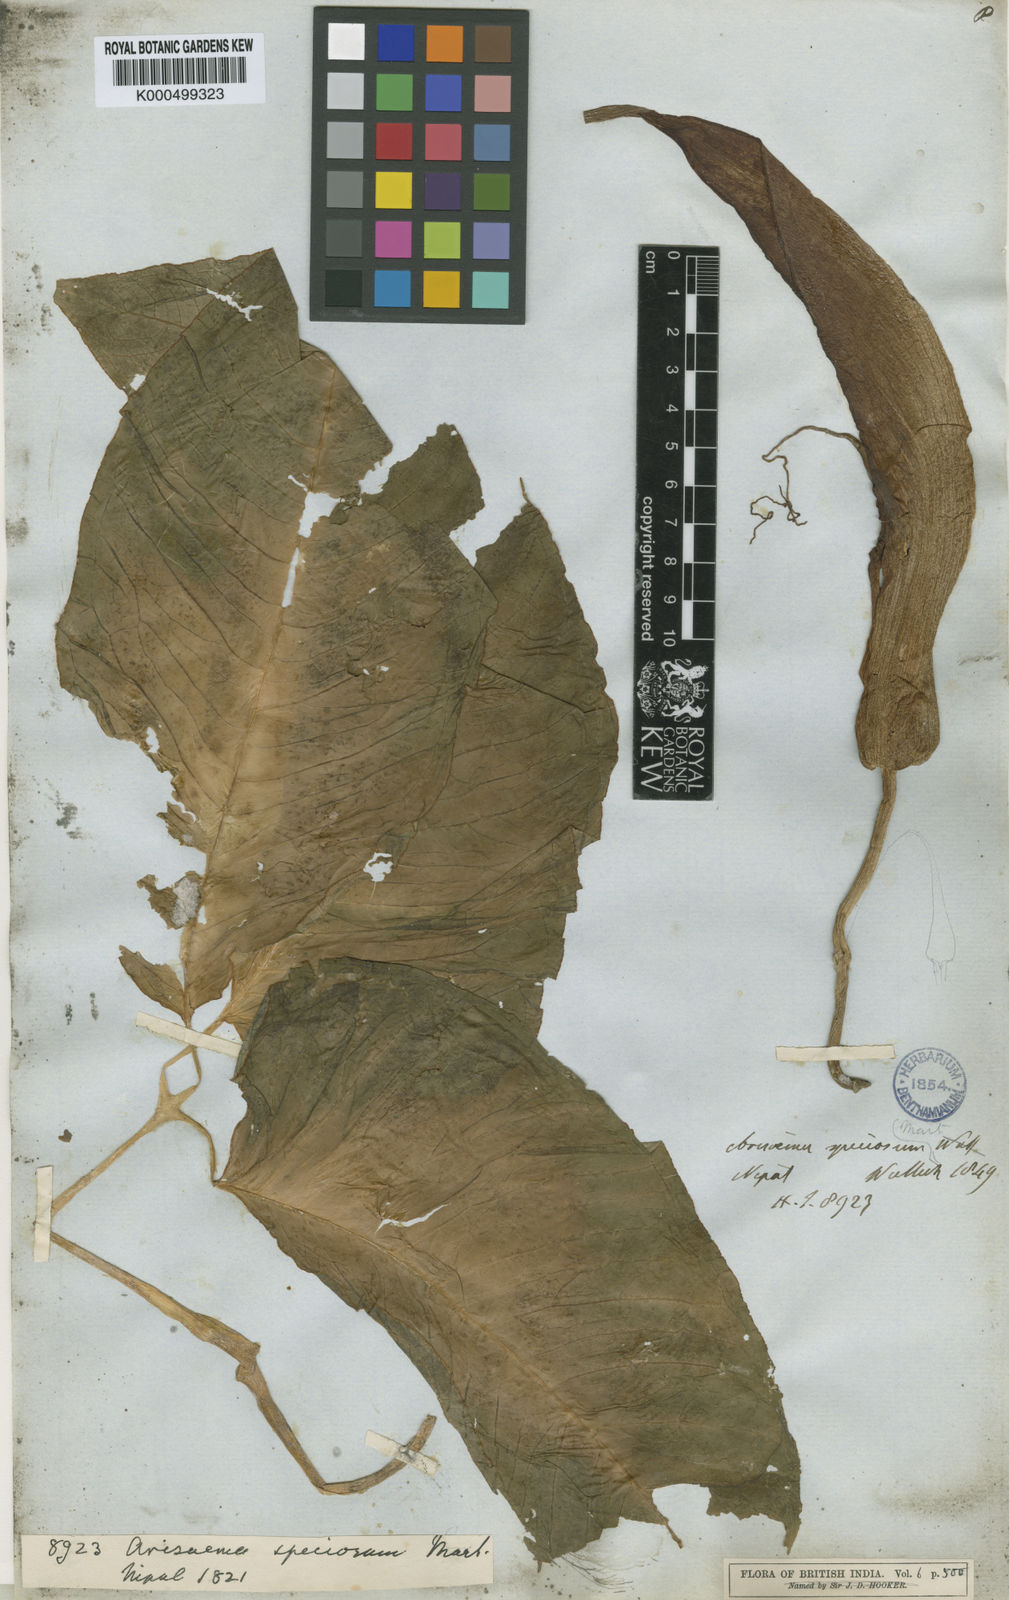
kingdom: Plantae
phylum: Tracheophyta
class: Liliopsida
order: Alismatales
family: Araceae
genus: Arisaema
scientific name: Arisaema speciosum
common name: Showy cobra-lily
